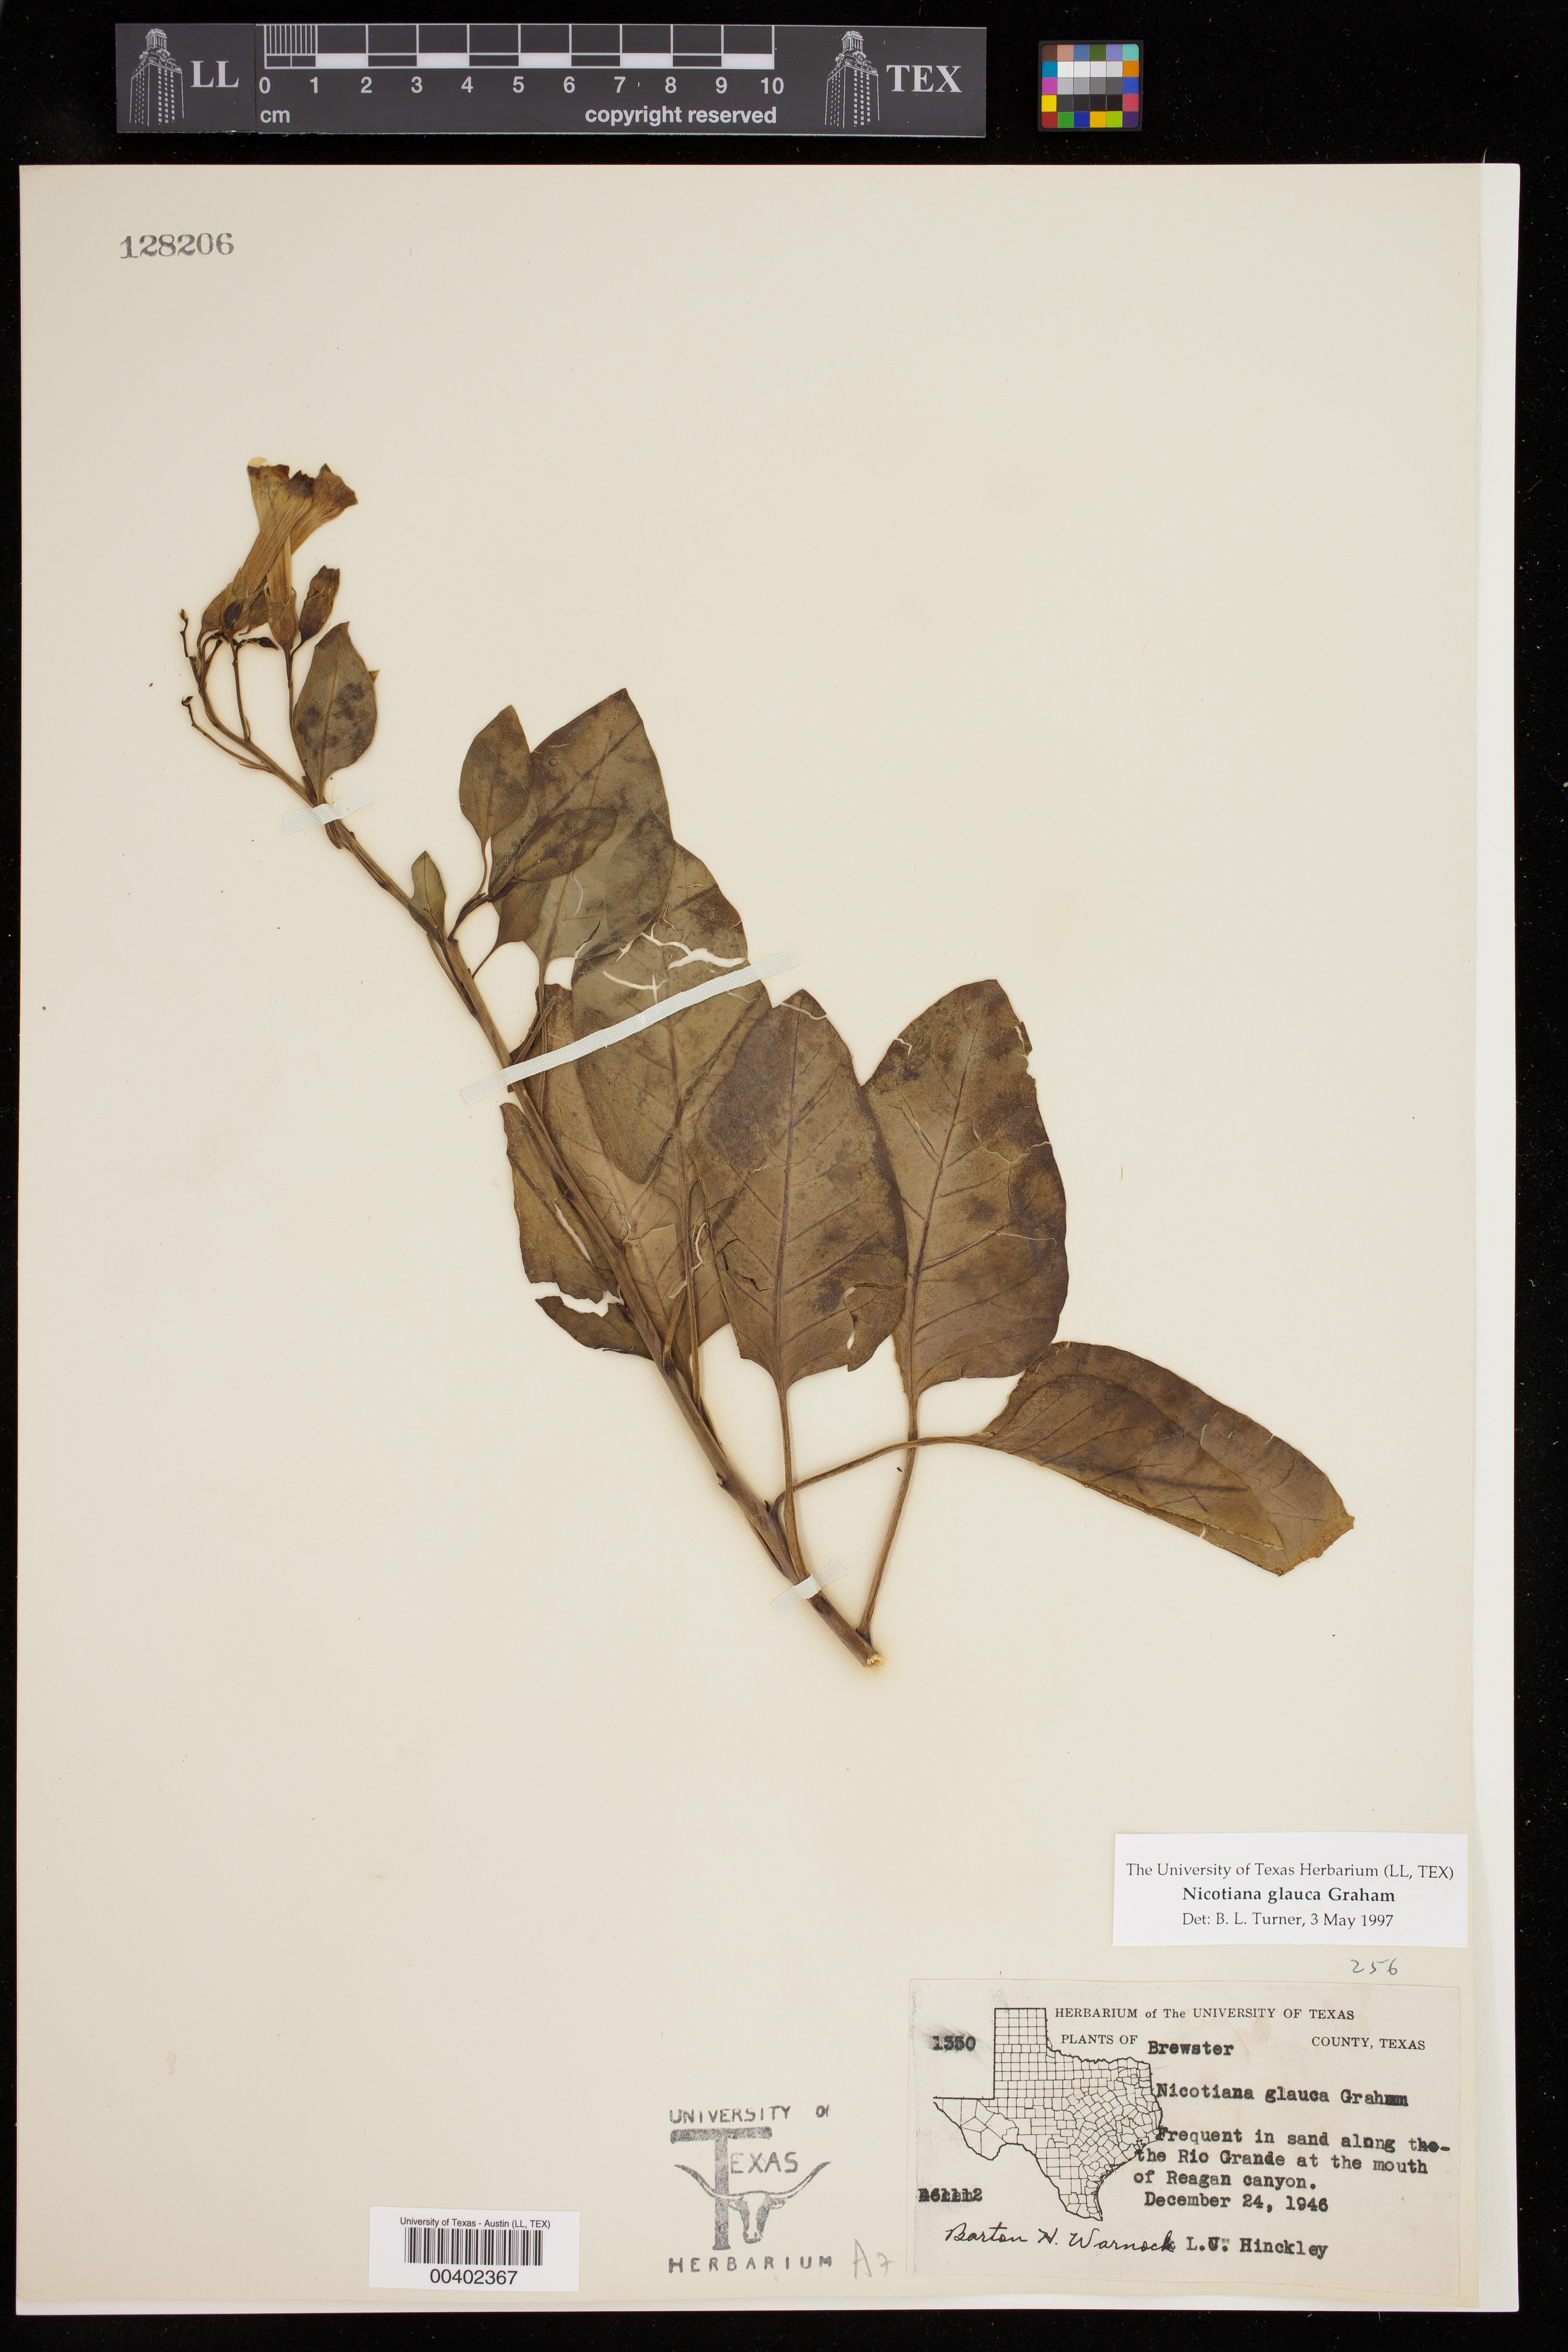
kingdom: Plantae
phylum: Tracheophyta
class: Magnoliopsida
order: Solanales
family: Solanaceae
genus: Nicotiana
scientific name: Nicotiana glauca
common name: Tree tobacco
